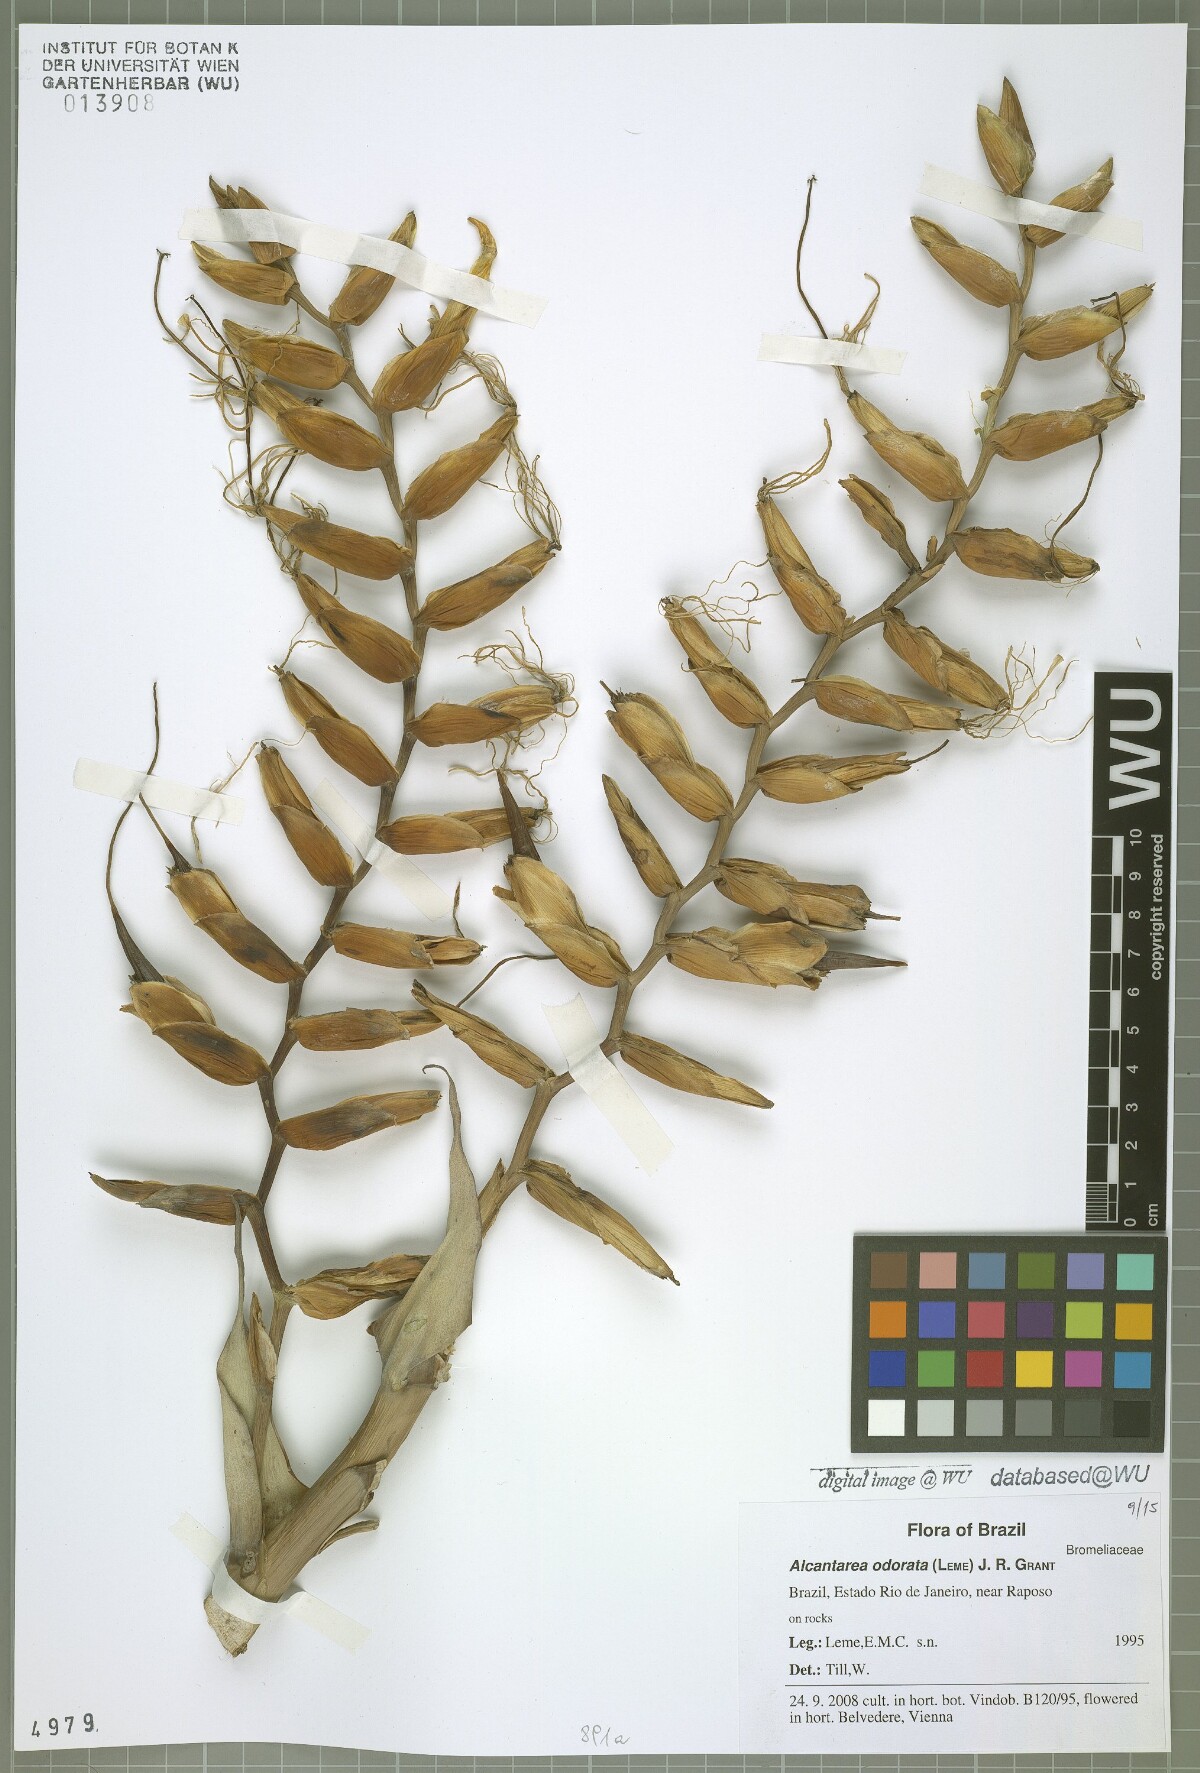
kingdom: Plantae
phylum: Tracheophyta
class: Liliopsida
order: Poales
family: Bromeliaceae
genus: Alcantarea
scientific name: Alcantarea odorata
